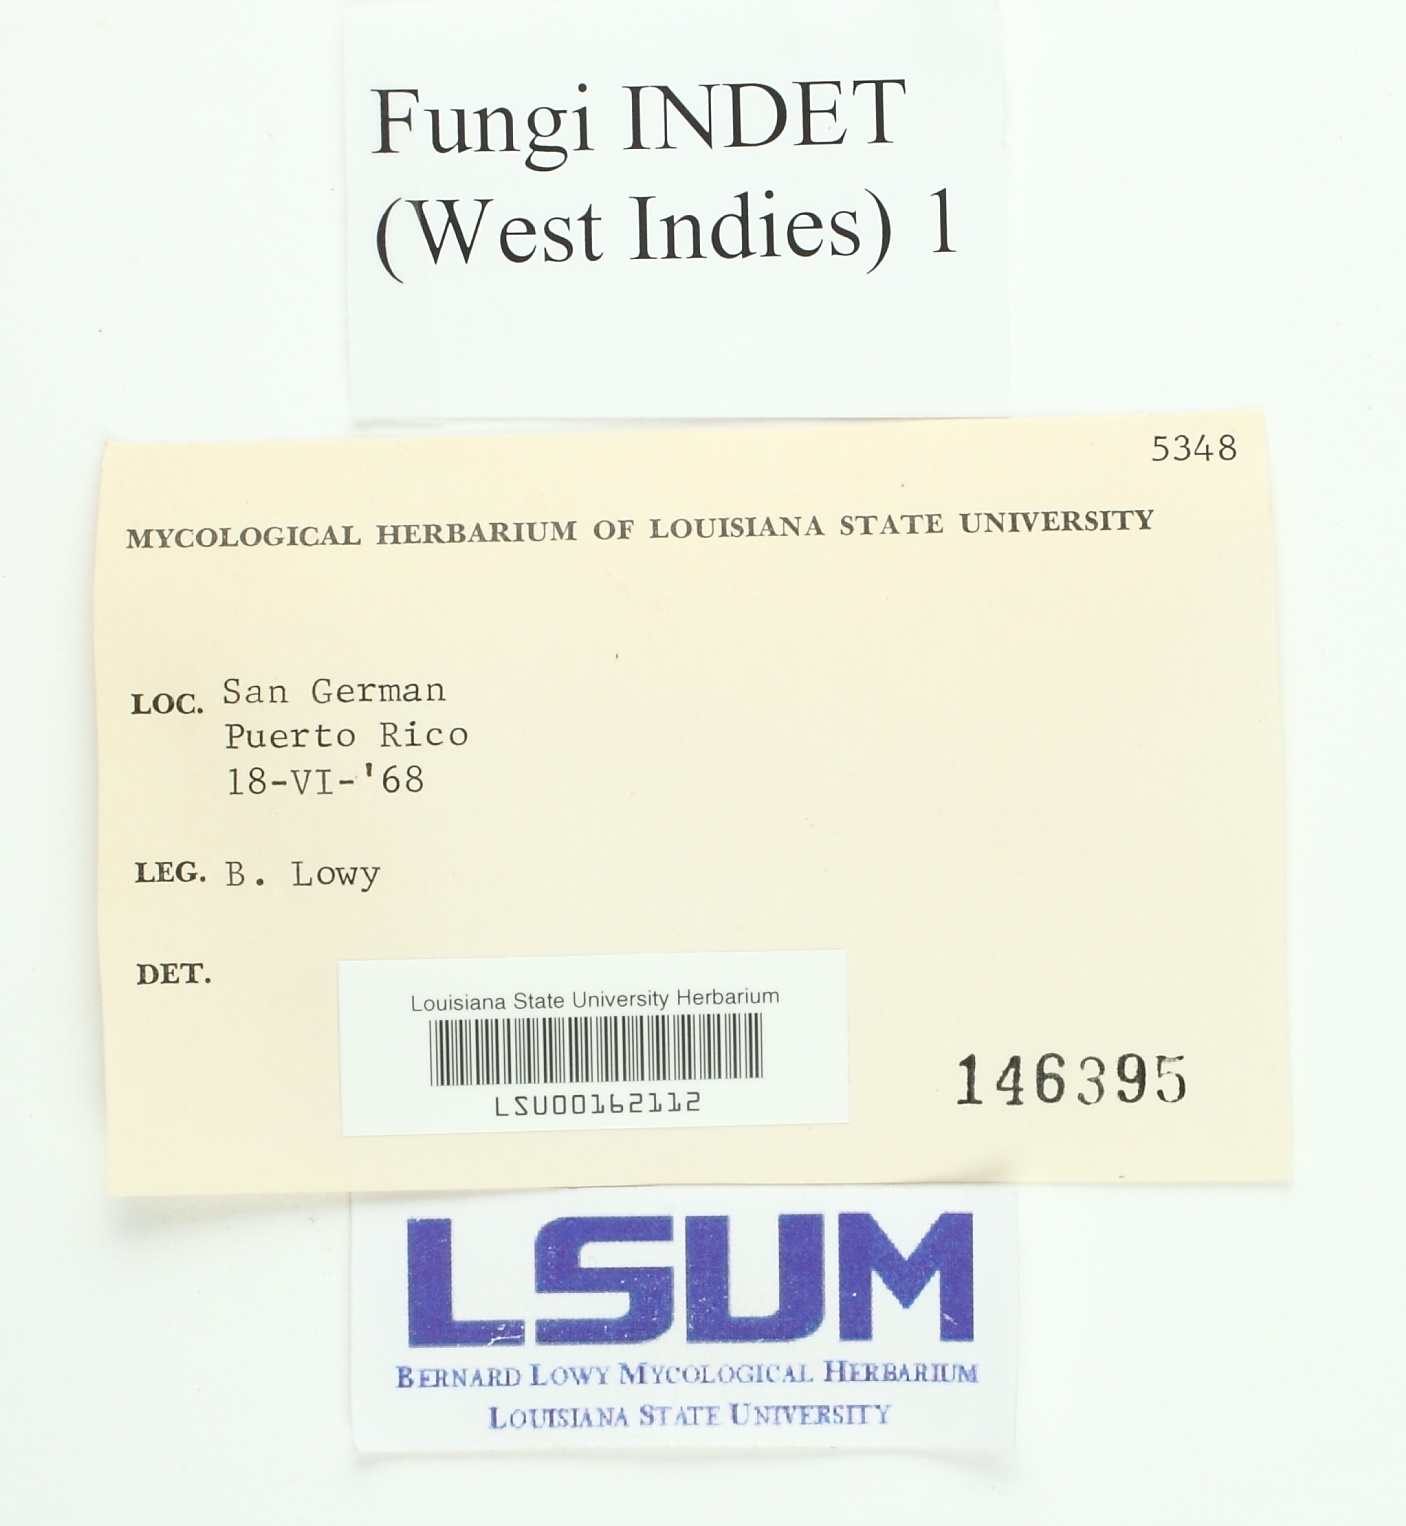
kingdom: Fungi
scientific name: Fungi
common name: Fungi
